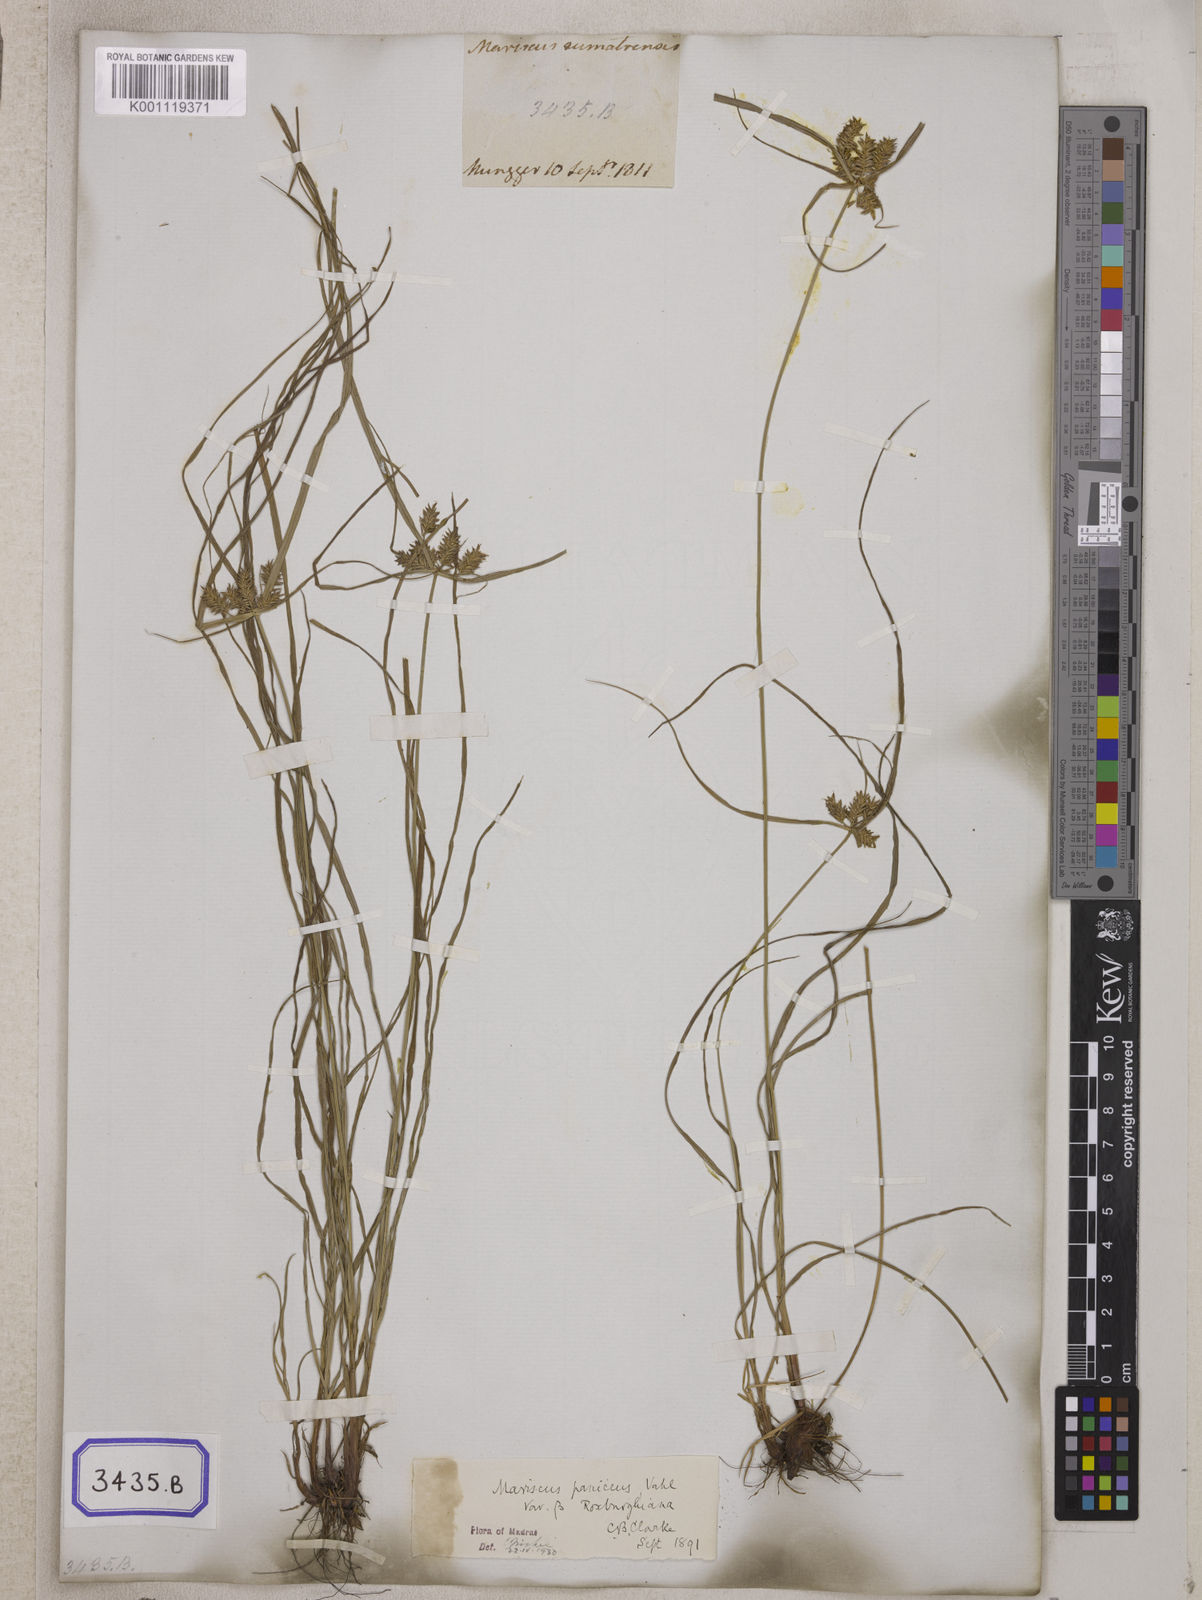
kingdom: Plantae
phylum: Tracheophyta
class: Liliopsida
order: Poales
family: Cyperaceae
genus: Mariscus
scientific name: Mariscus
